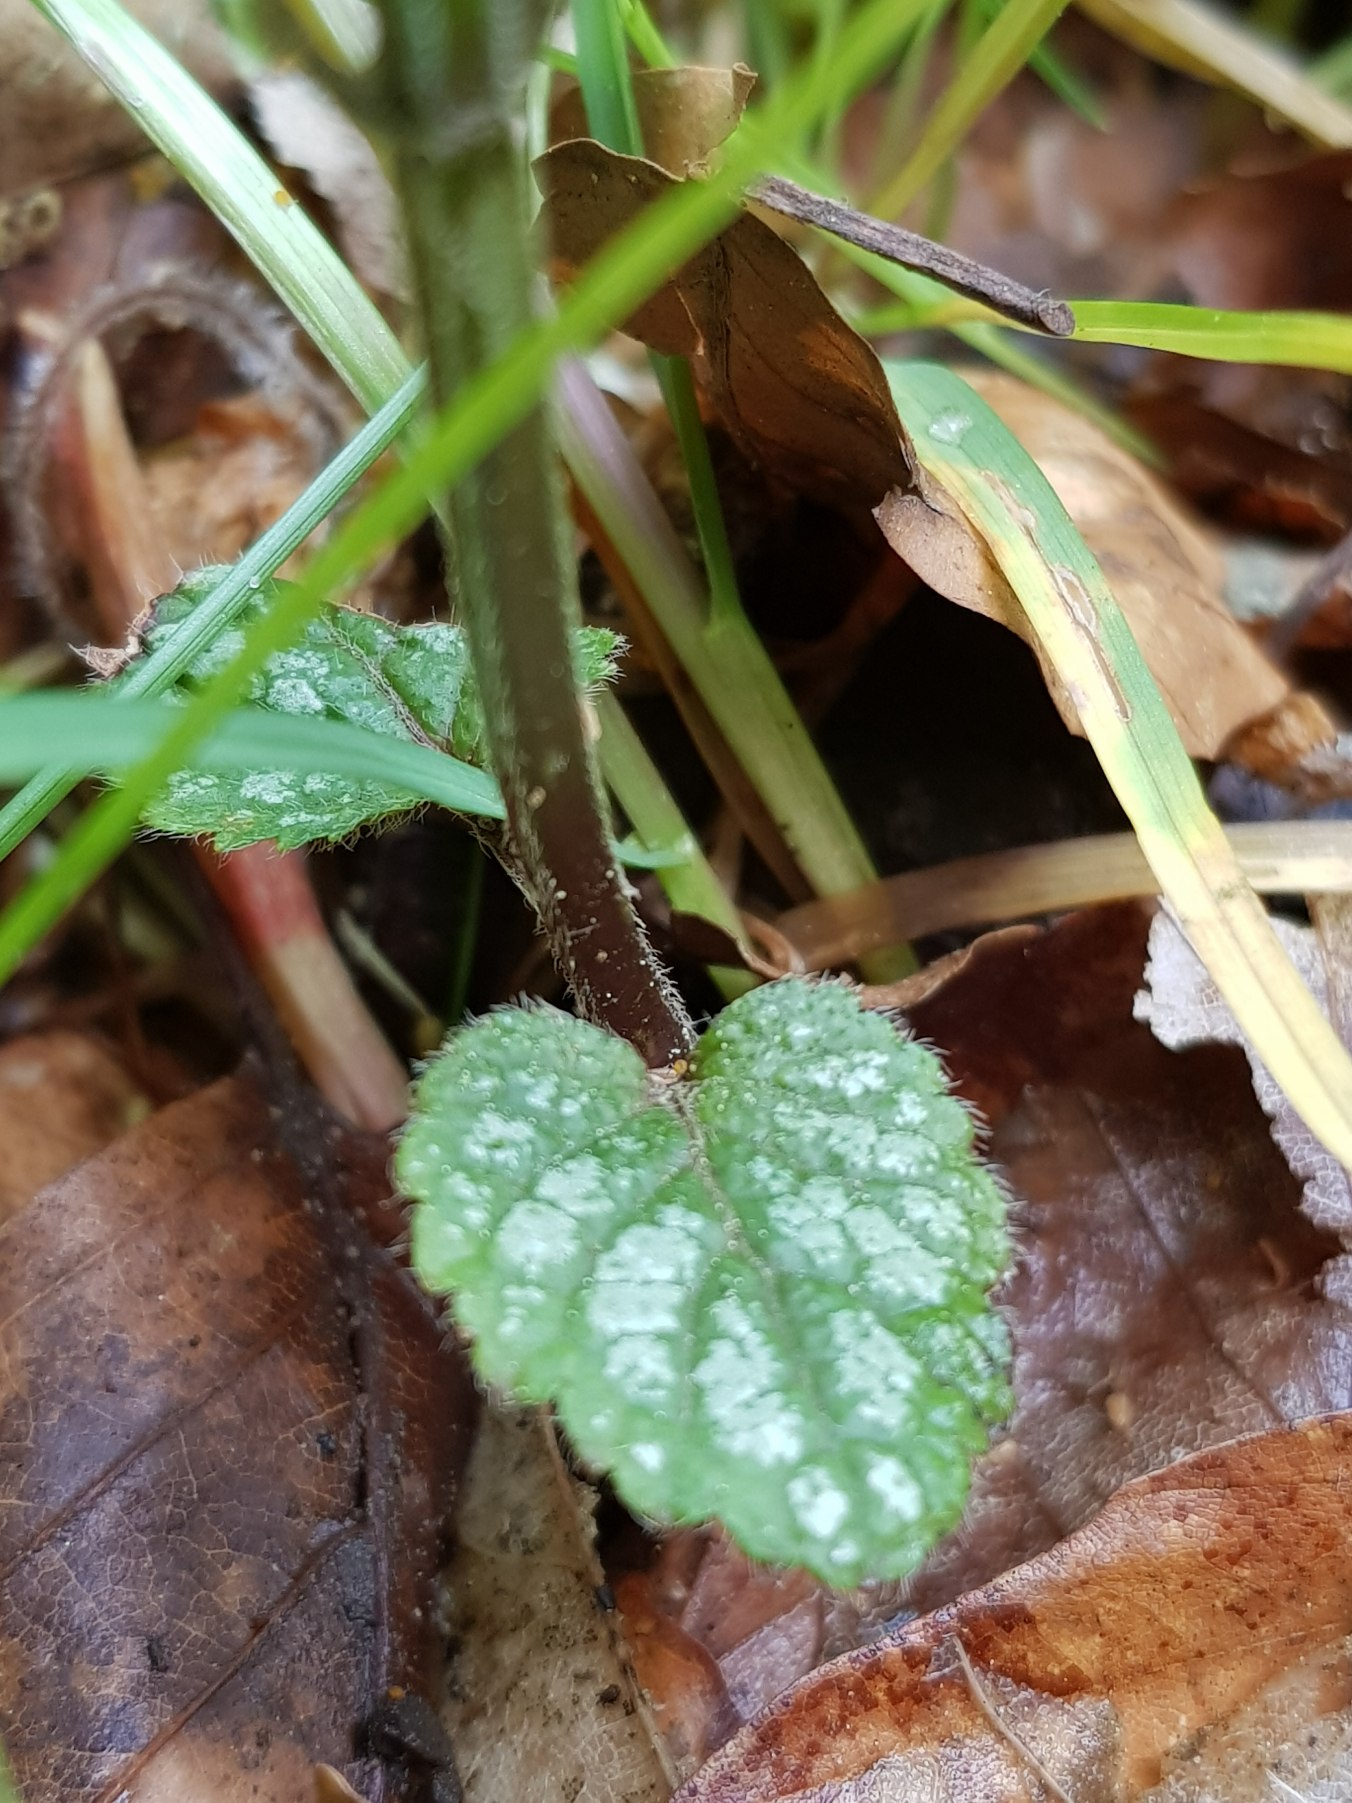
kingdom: Plantae
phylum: Tracheophyta
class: Magnoliopsida
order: Lamiales
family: Lamiaceae
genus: Lamium
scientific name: Lamium galeobdolon
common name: Almindelig guldnælde
